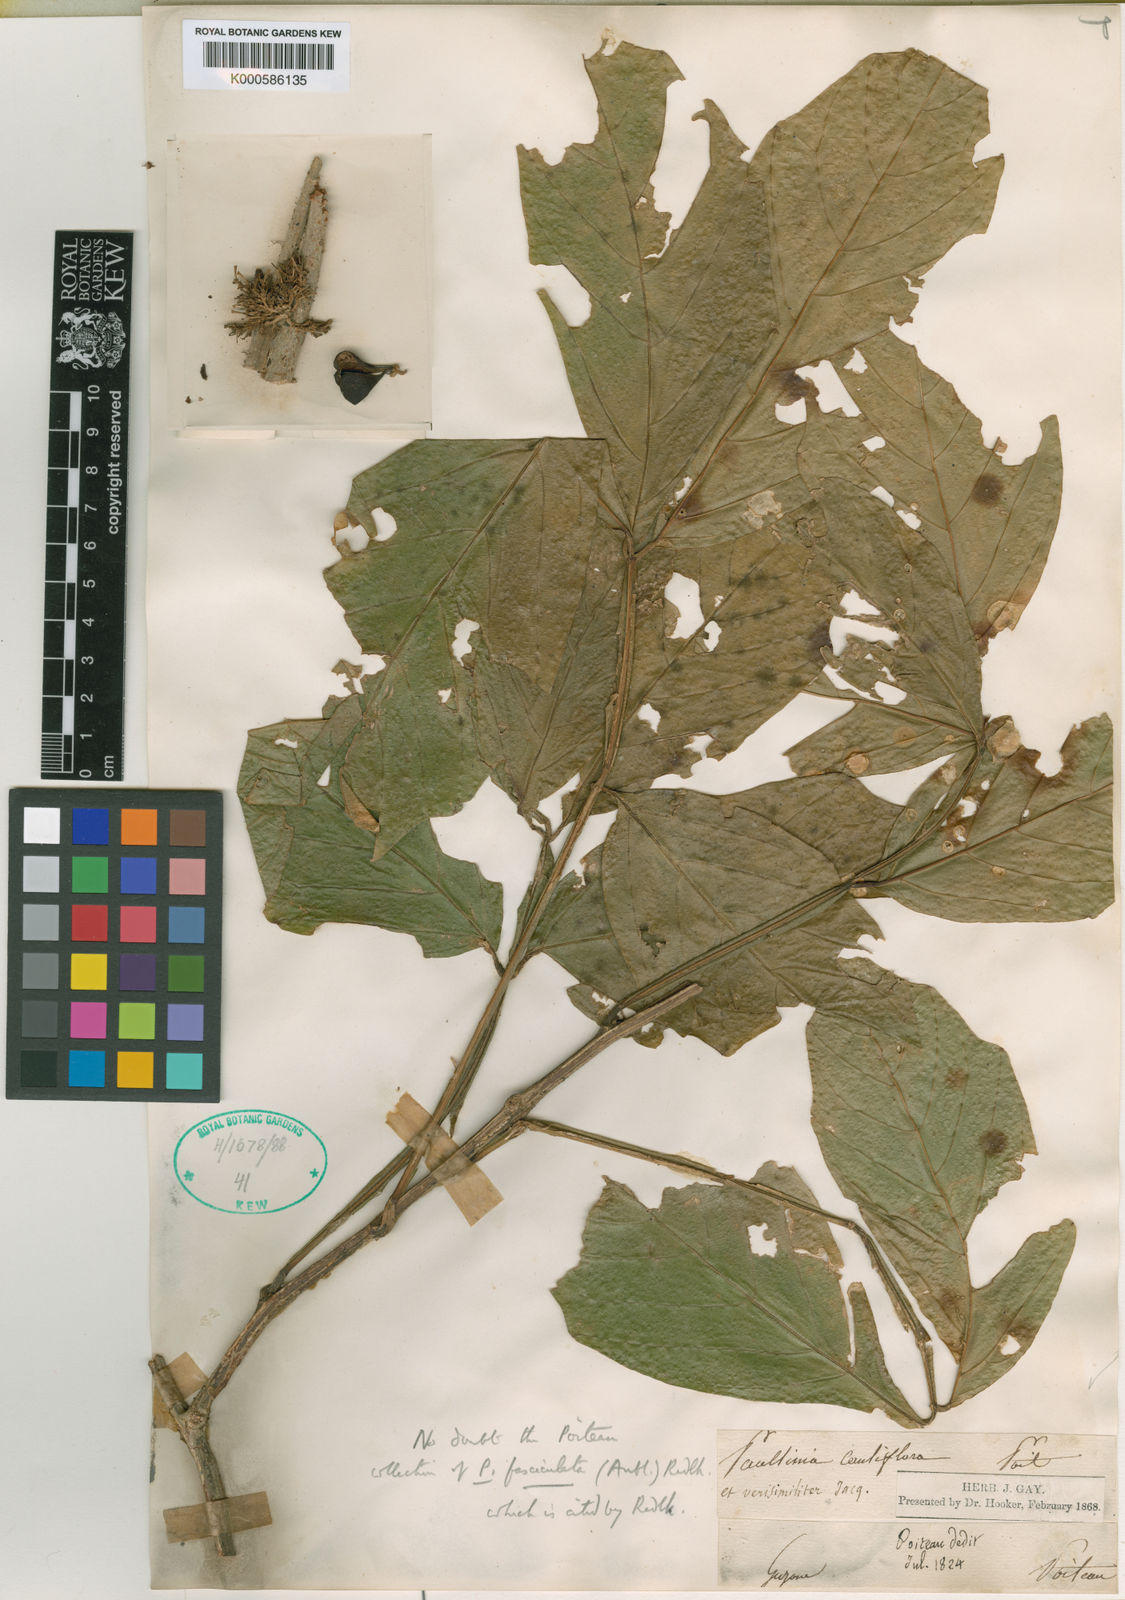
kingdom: Plantae
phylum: Tracheophyta
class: Magnoliopsida
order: Sapindales
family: Sapindaceae
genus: Paullinia
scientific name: Paullinia alata
